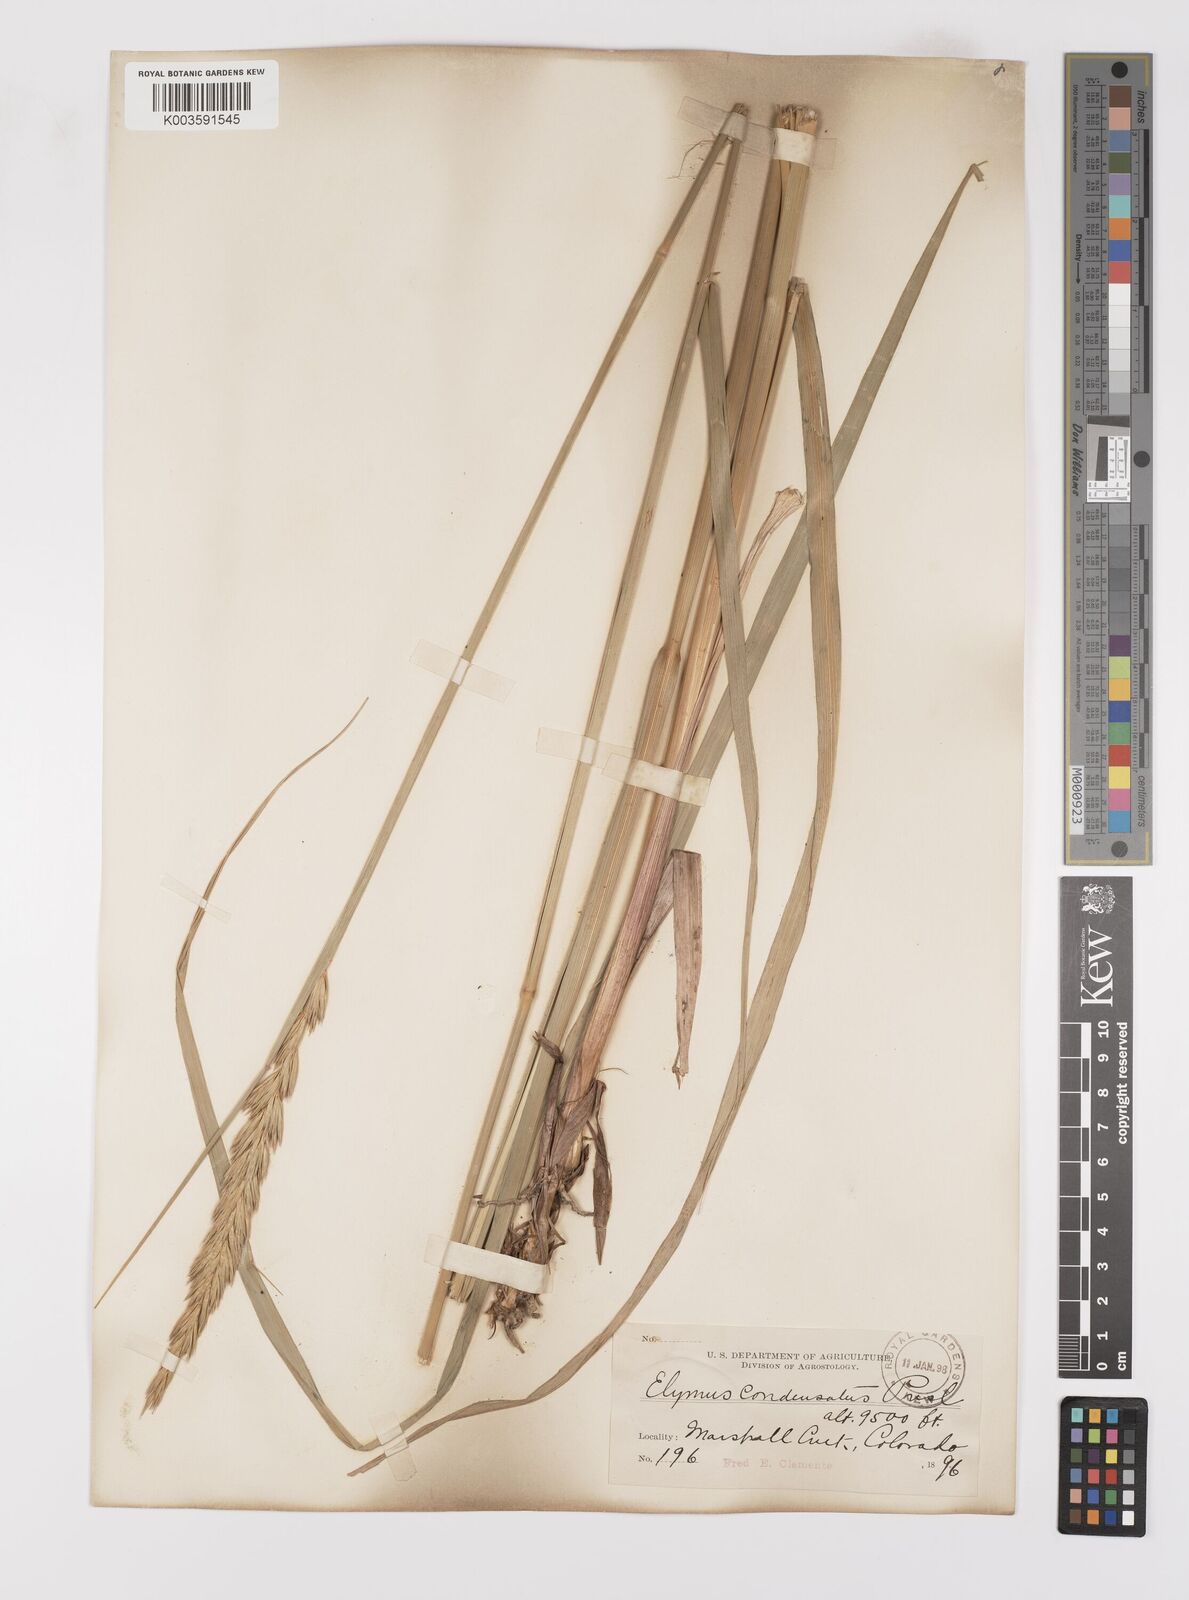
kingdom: Plantae
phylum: Tracheophyta
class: Liliopsida
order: Poales
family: Poaceae
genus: Leymus
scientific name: Leymus condensatus
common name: Giant wild rye
